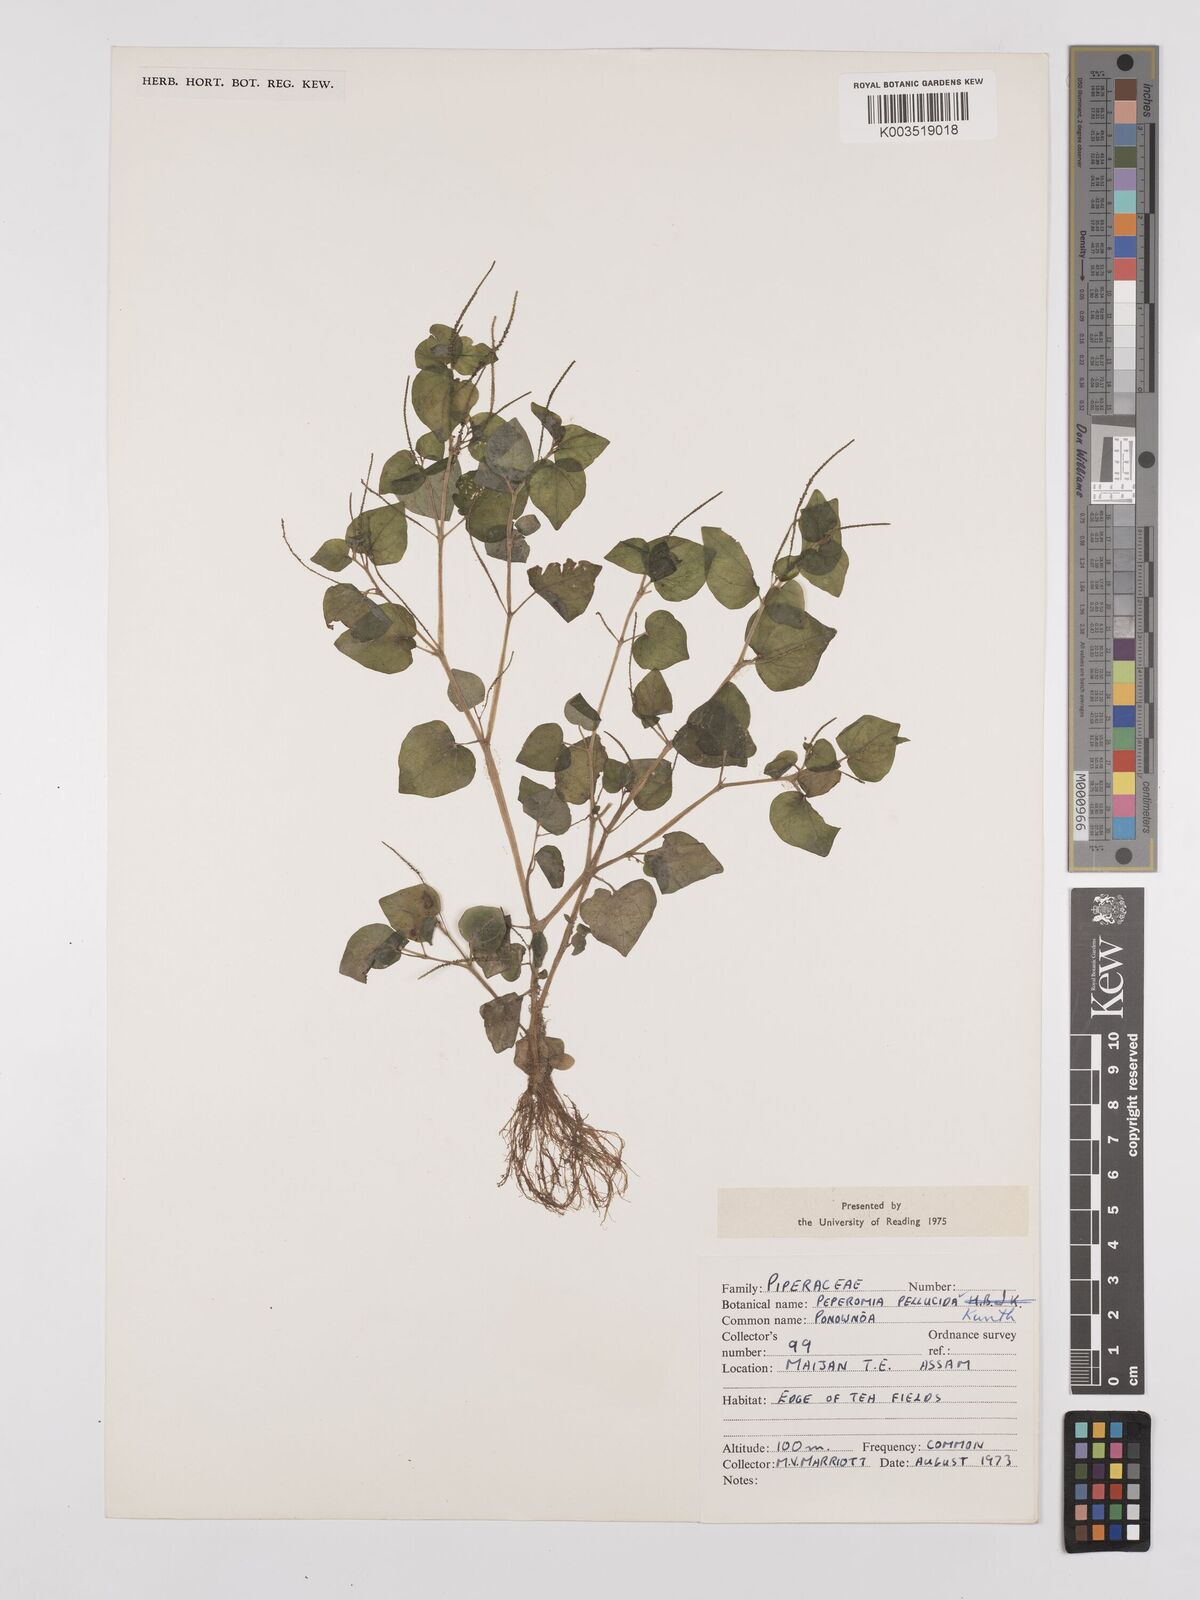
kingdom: Plantae
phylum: Tracheophyta
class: Magnoliopsida
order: Piperales
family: Piperaceae
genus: Peperomia
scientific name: Peperomia pellucida
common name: Man to man
